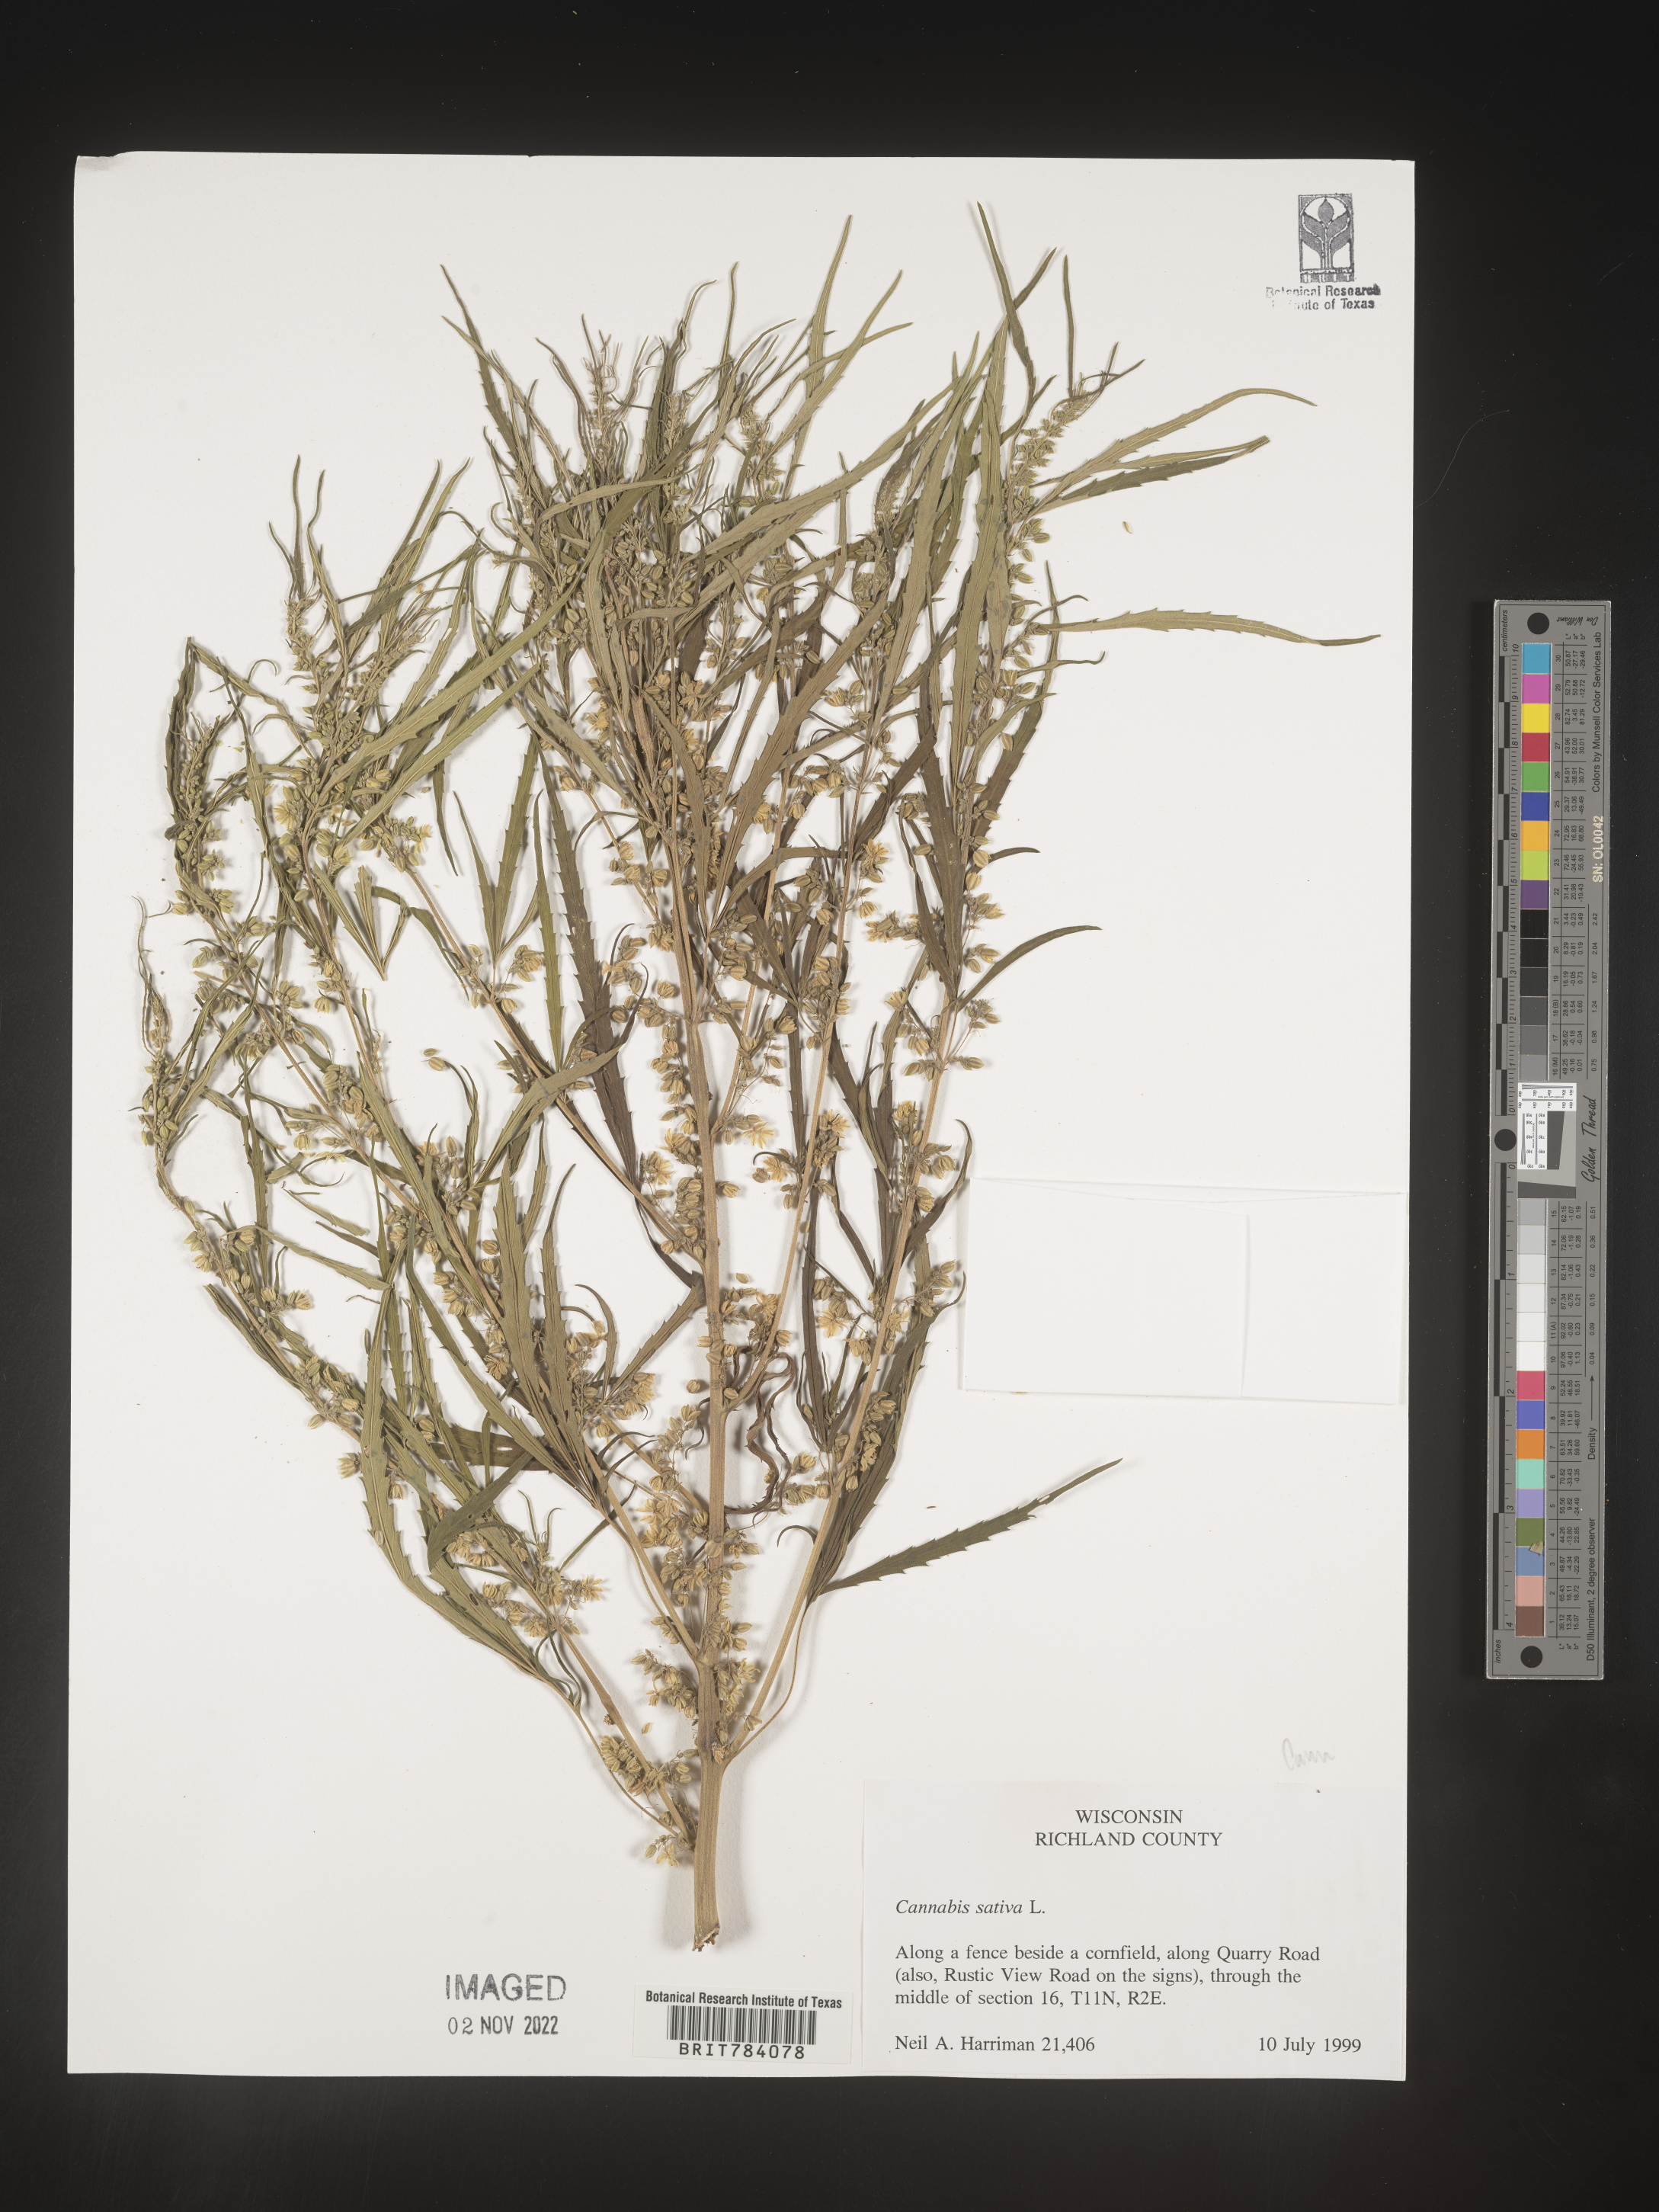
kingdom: Plantae
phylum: Tracheophyta
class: Magnoliopsida
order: Rosales
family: Cannabaceae
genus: Cannabis
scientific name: Cannabis sativa
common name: Hemp
